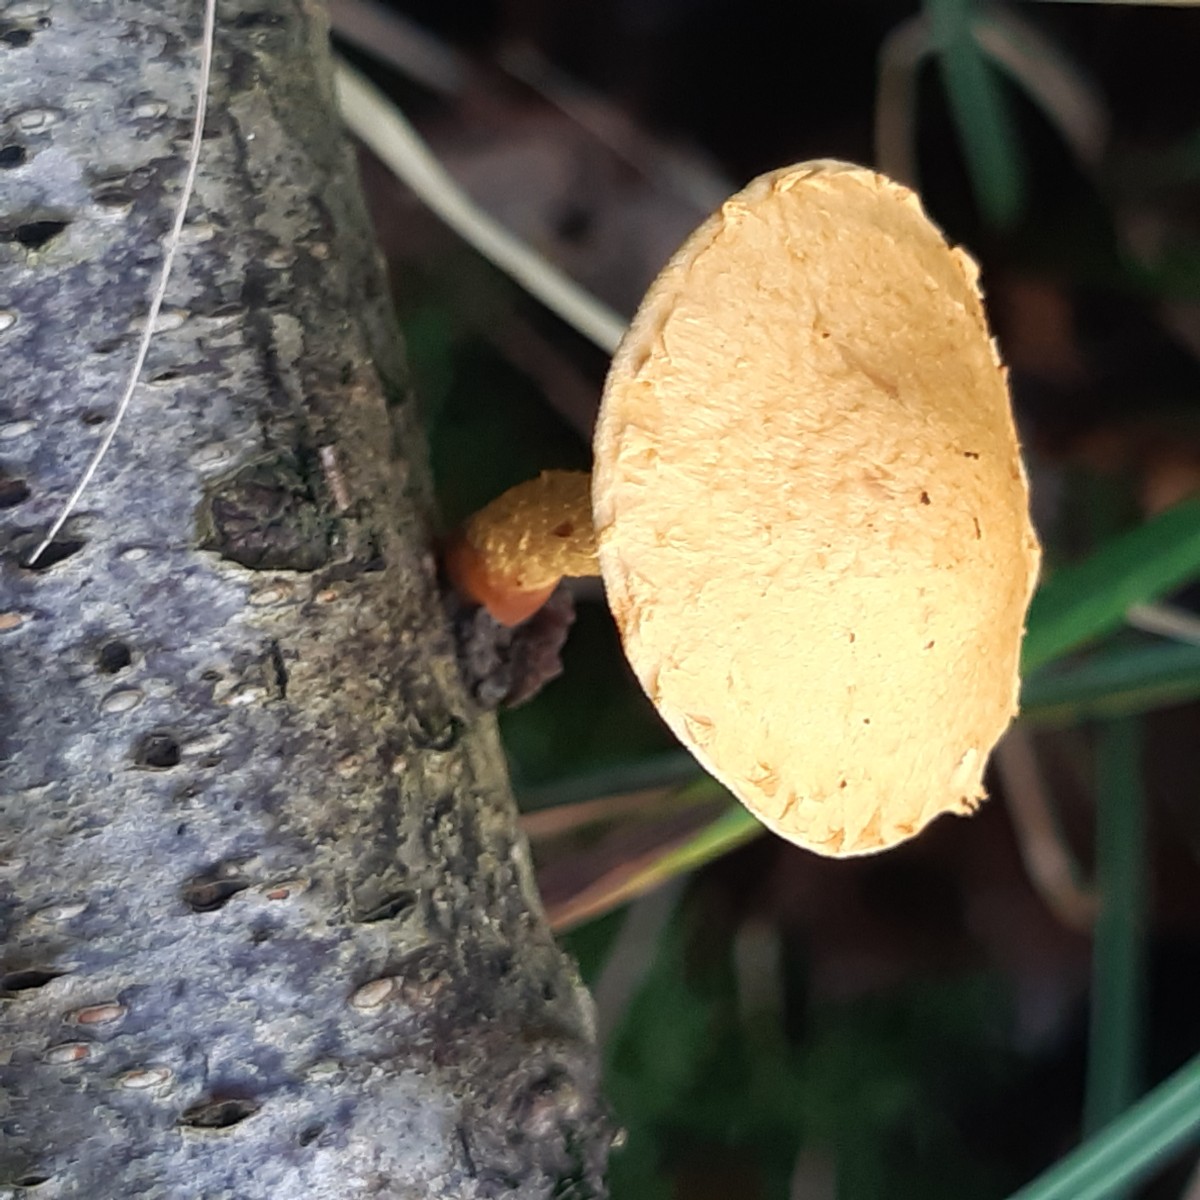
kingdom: Fungi
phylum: Basidiomycota
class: Agaricomycetes
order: Agaricales
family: Strophariaceae
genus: Pholiota
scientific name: Pholiota tuberculosa
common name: finskællet skælhat
